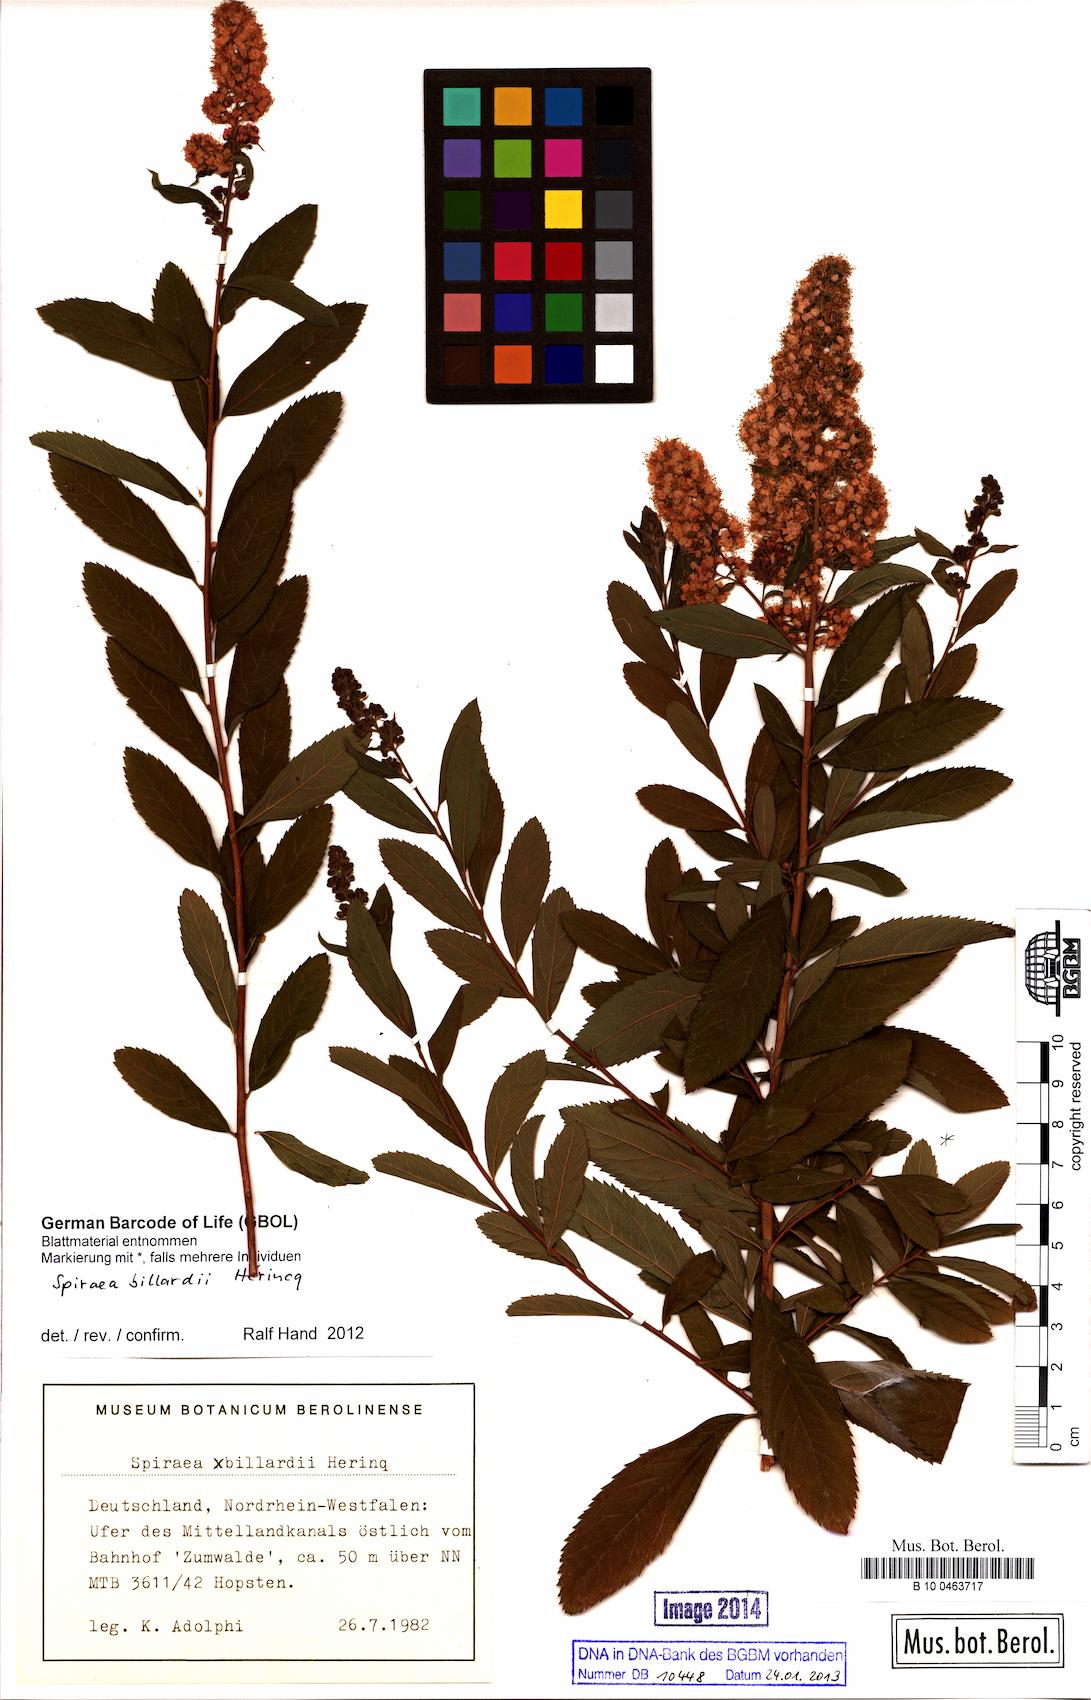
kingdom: Plantae
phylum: Tracheophyta
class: Magnoliopsida
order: Rosales
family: Rosaceae
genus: Spiraea
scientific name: Spiraea billardii
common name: Billard's bridewort
